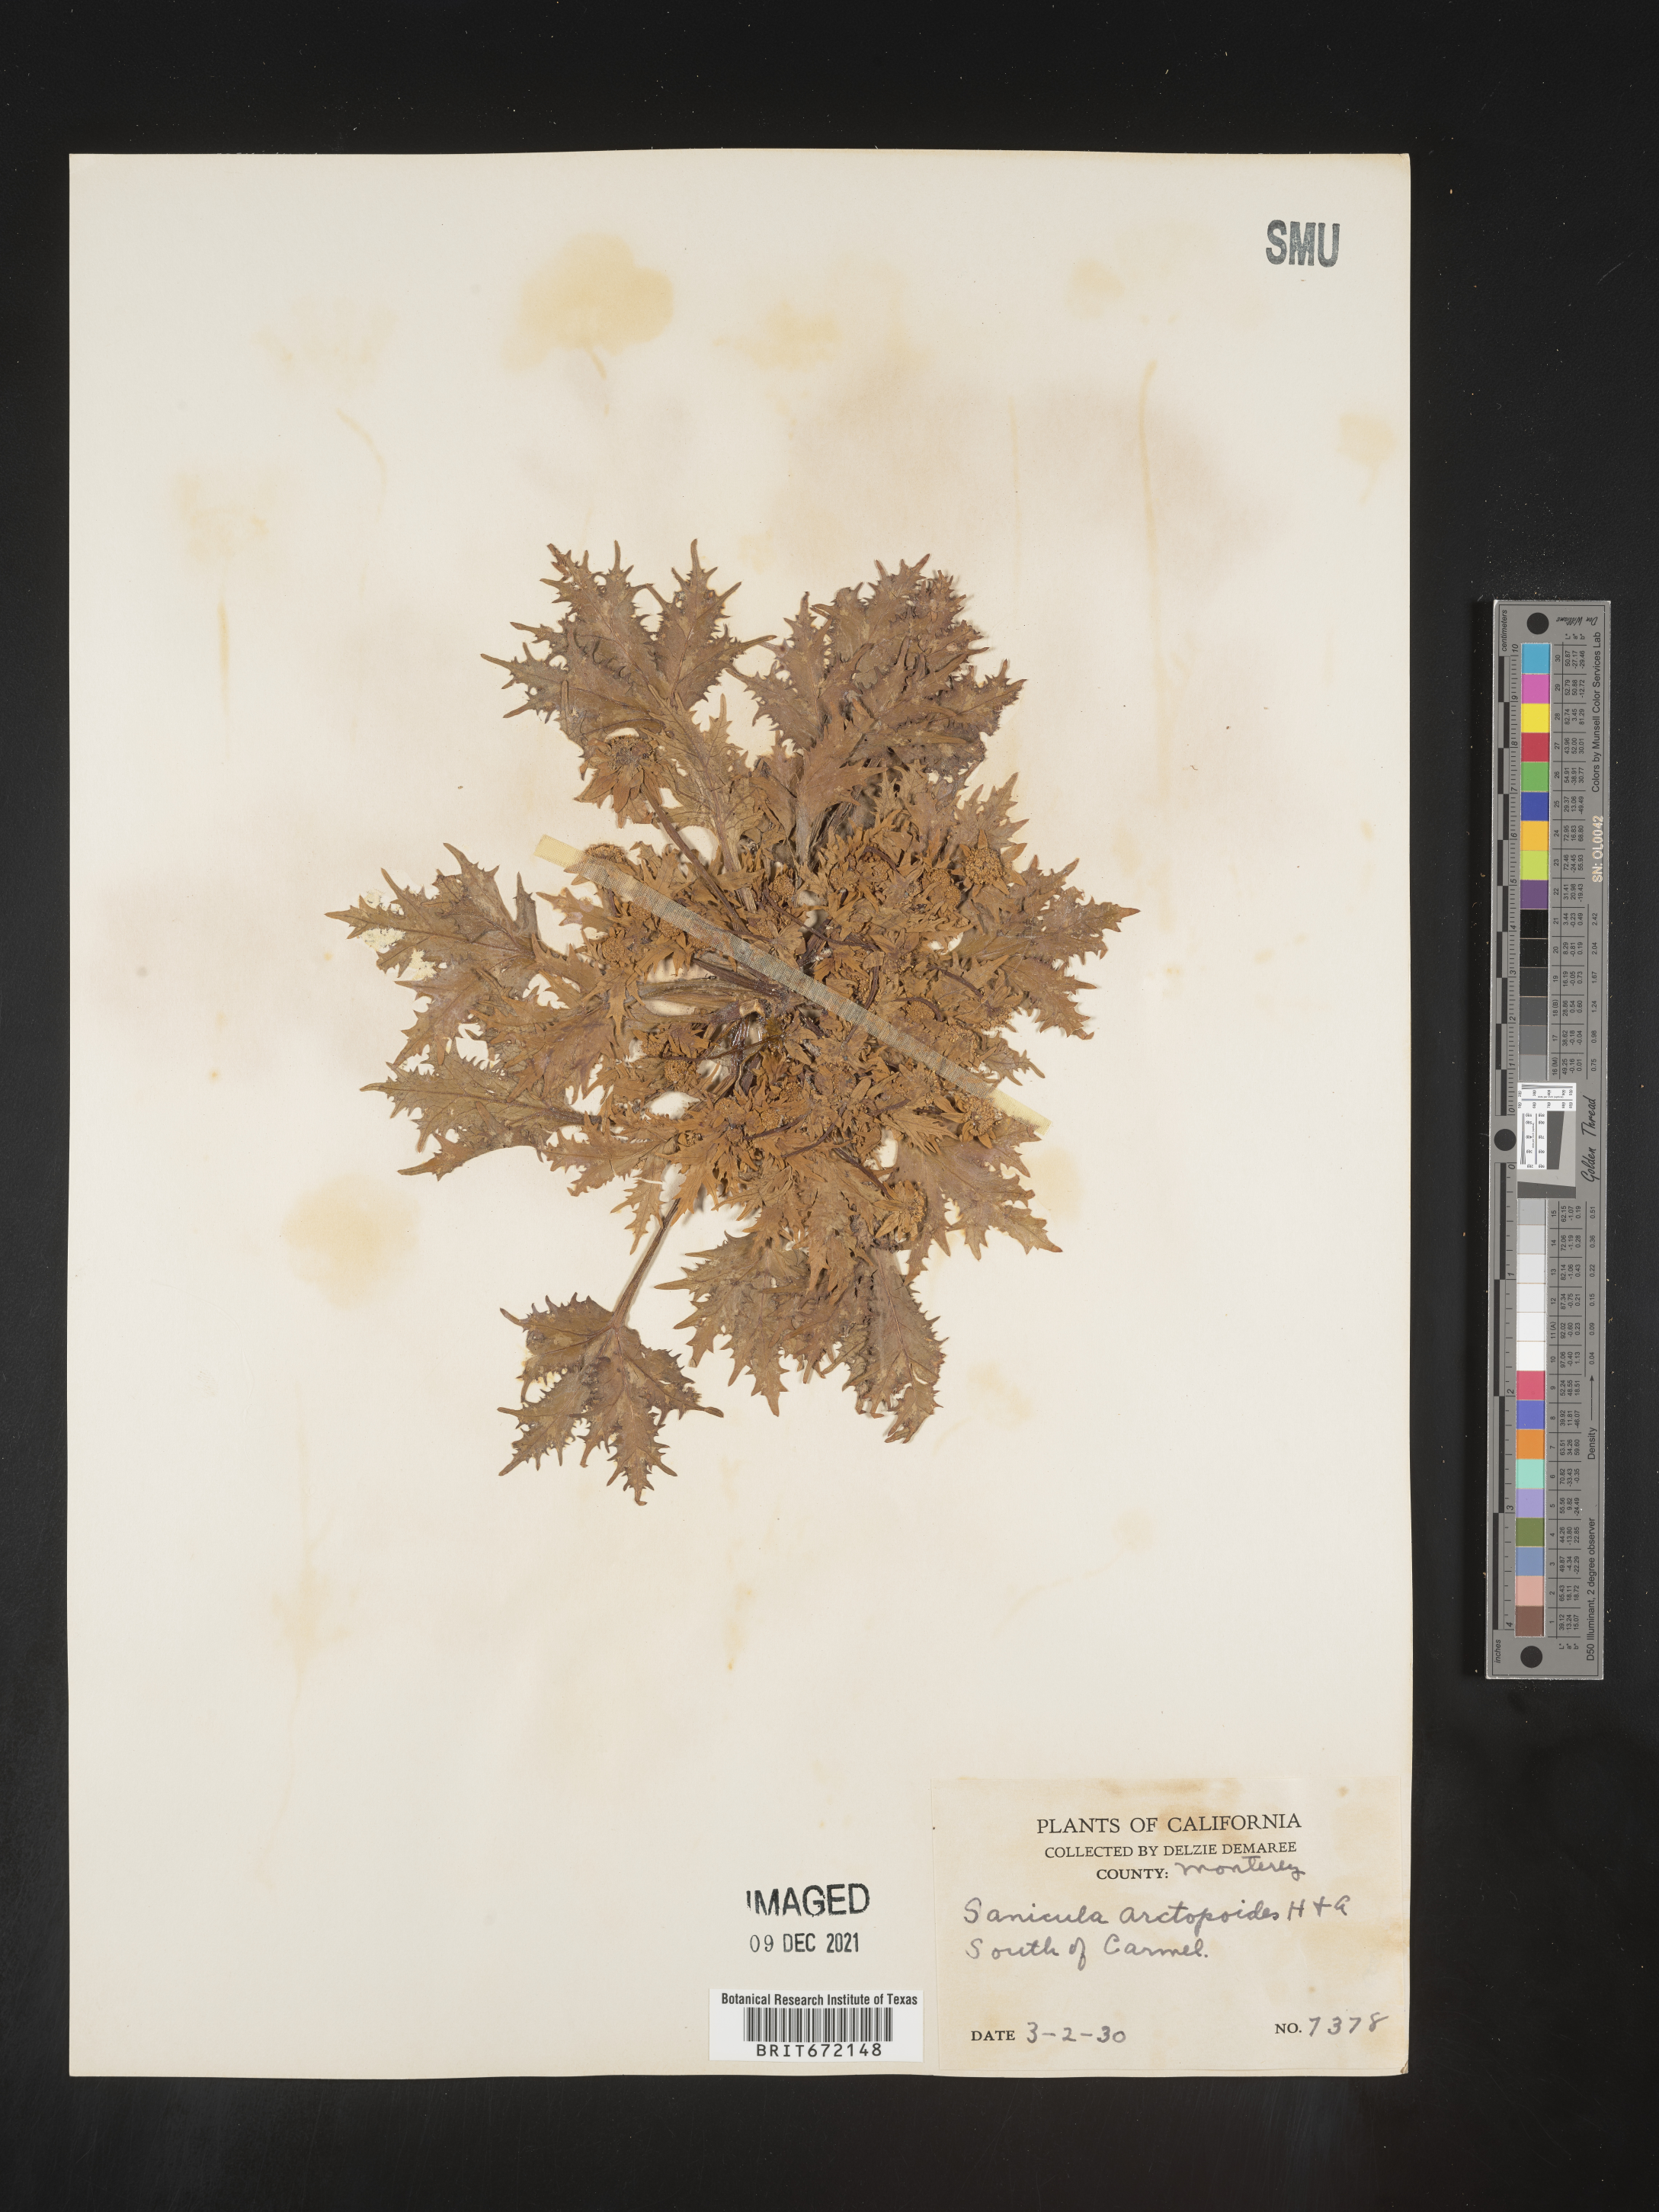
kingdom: Plantae
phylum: Tracheophyta
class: Magnoliopsida
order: Apiales
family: Apiaceae
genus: Sanicula
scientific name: Sanicula
